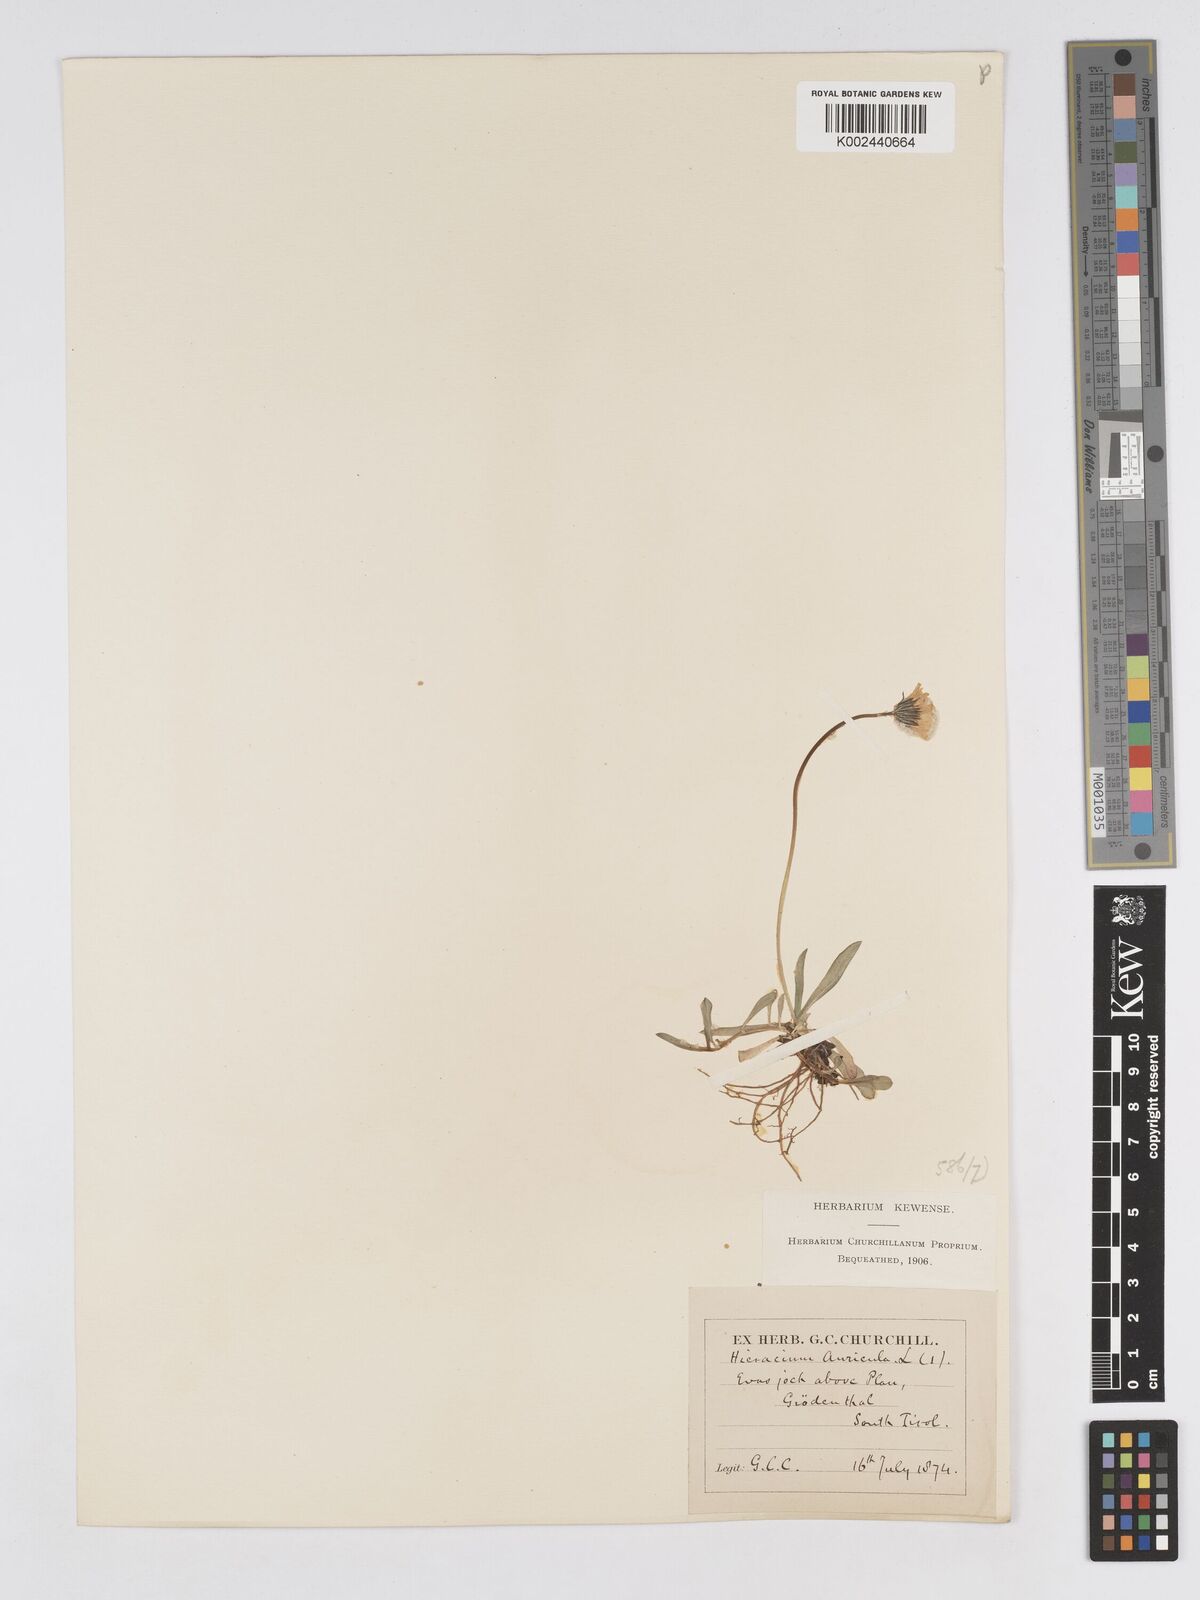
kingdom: Plantae
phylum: Tracheophyta
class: Magnoliopsida
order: Asterales
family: Asteraceae
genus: Pilosella
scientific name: Pilosella floribunda
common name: Glaucous hawkweed
